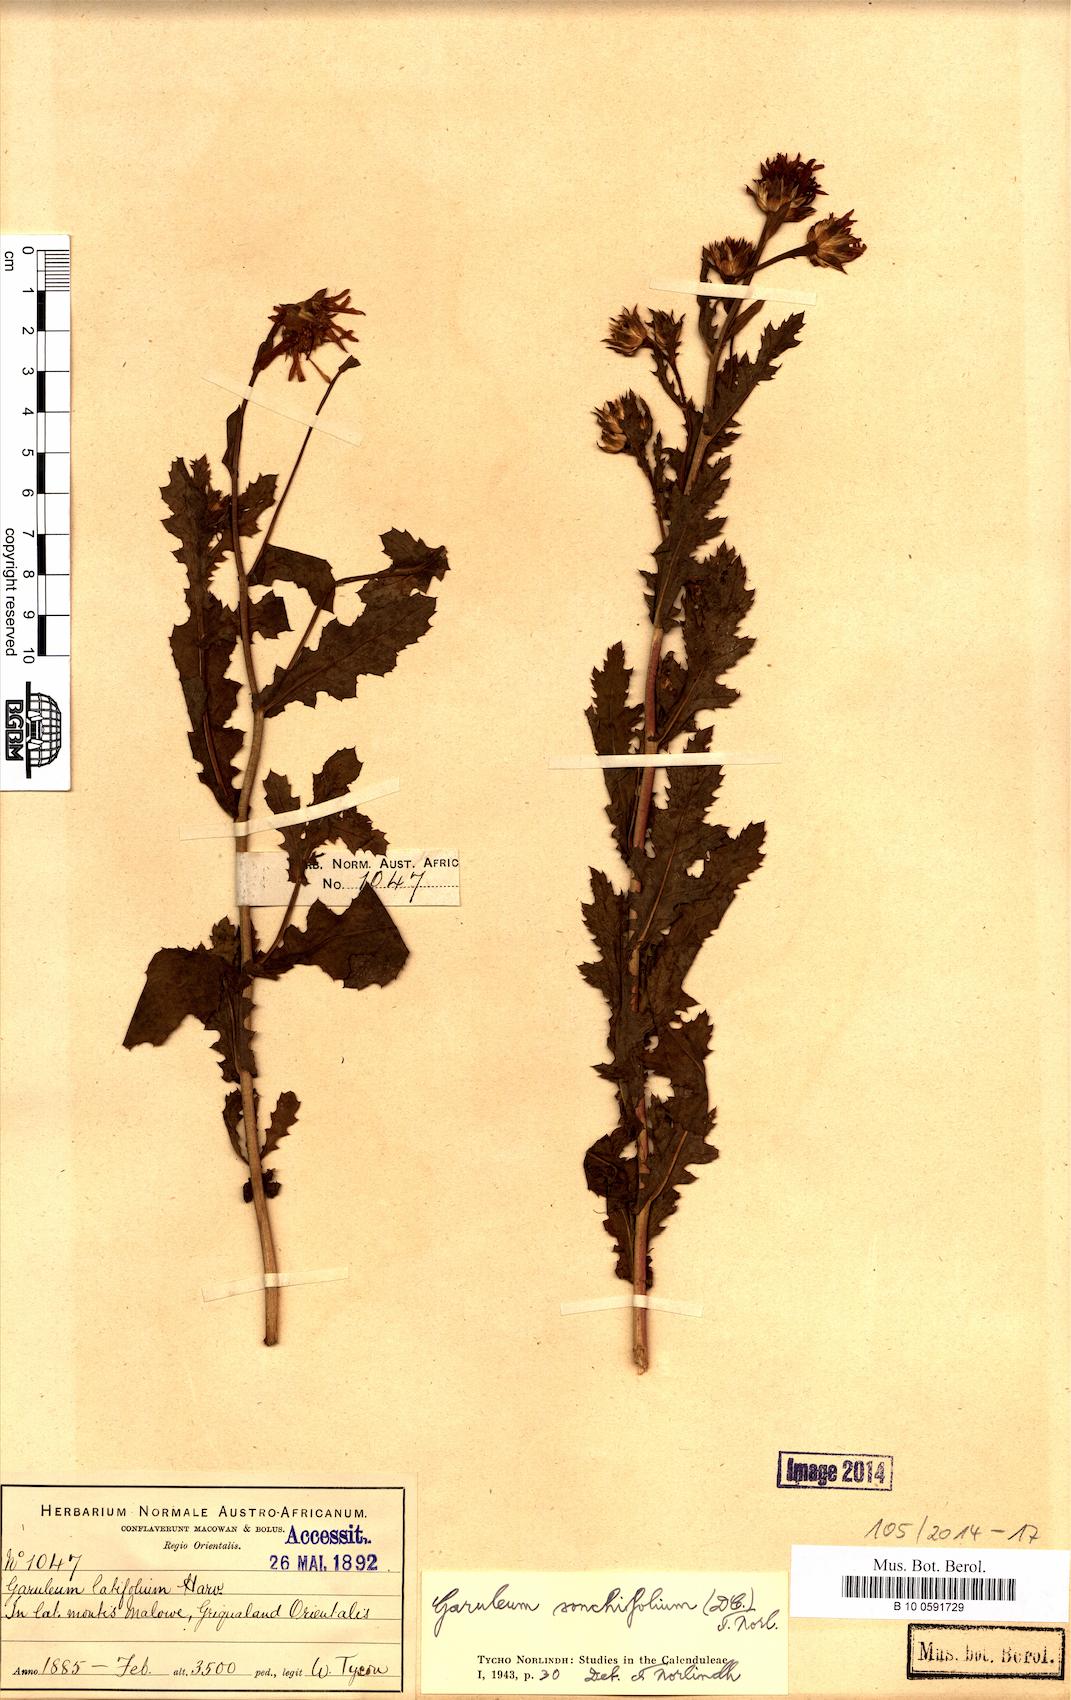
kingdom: Plantae
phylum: Tracheophyta
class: Magnoliopsida
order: Asterales
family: Asteraceae
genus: Garuleum
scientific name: Garuleum sonchifolium
